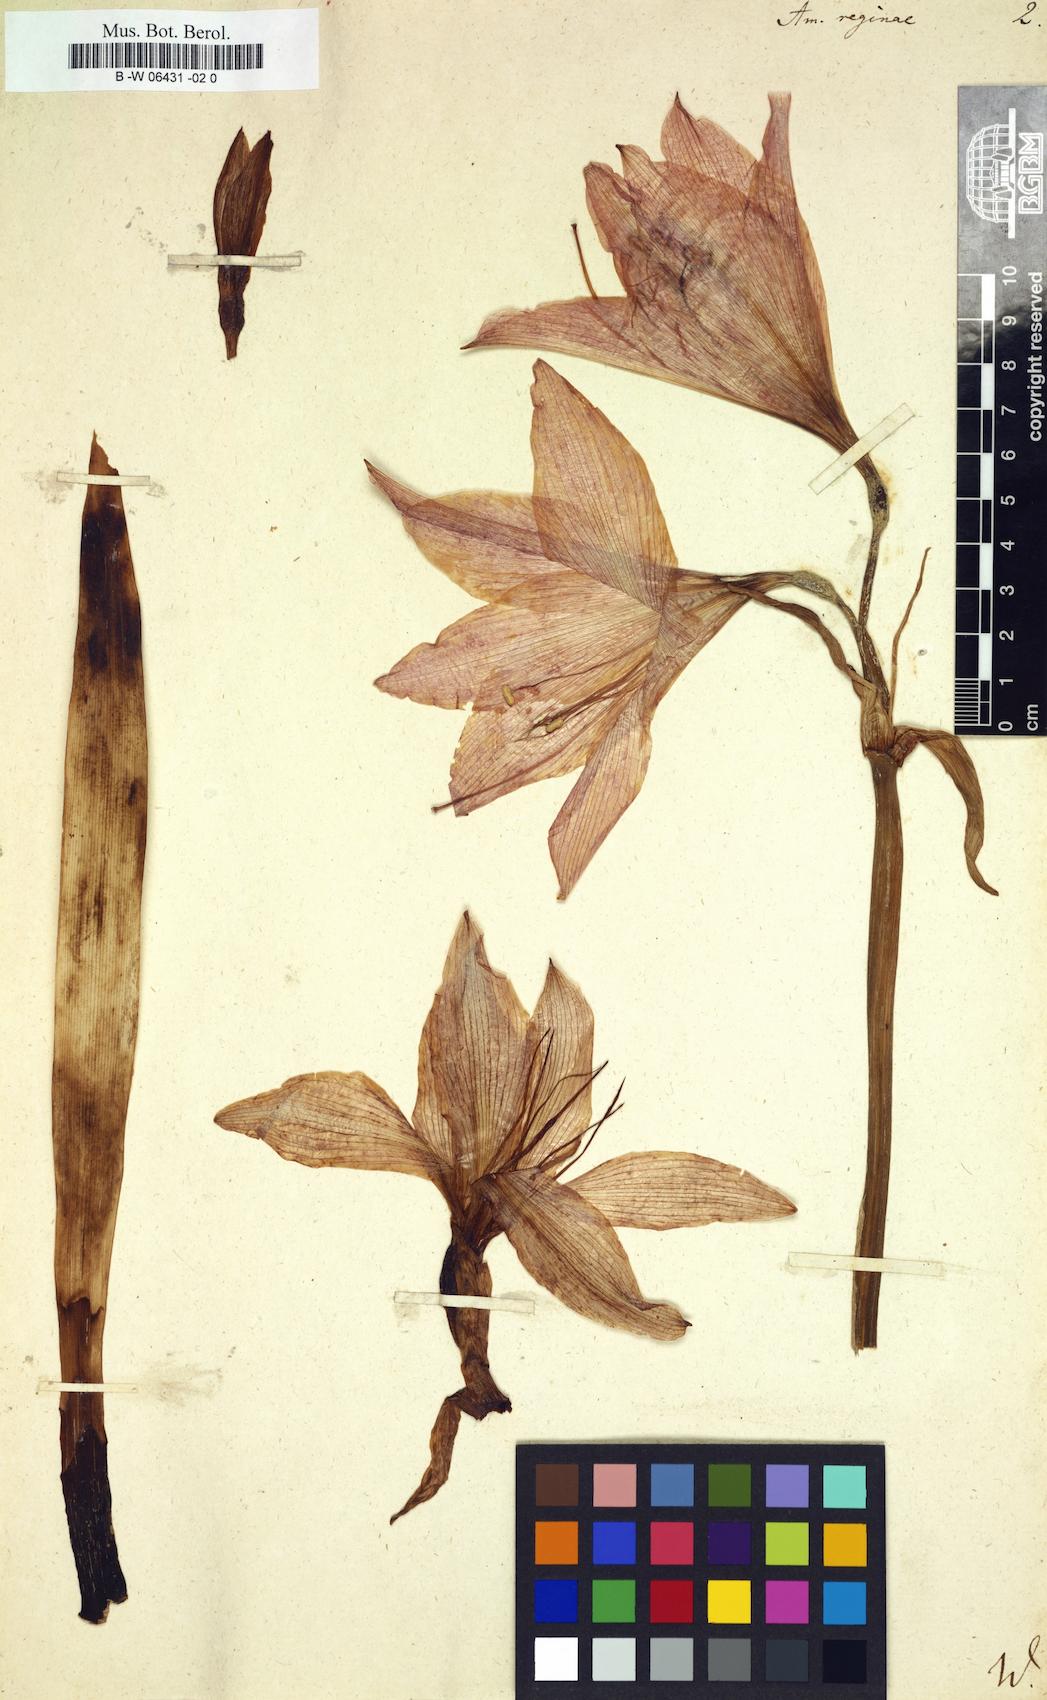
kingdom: Plantae
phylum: Tracheophyta
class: Liliopsida
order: Asparagales
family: Amaryllidaceae
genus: Hippeastrum
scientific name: Hippeastrum reginae
